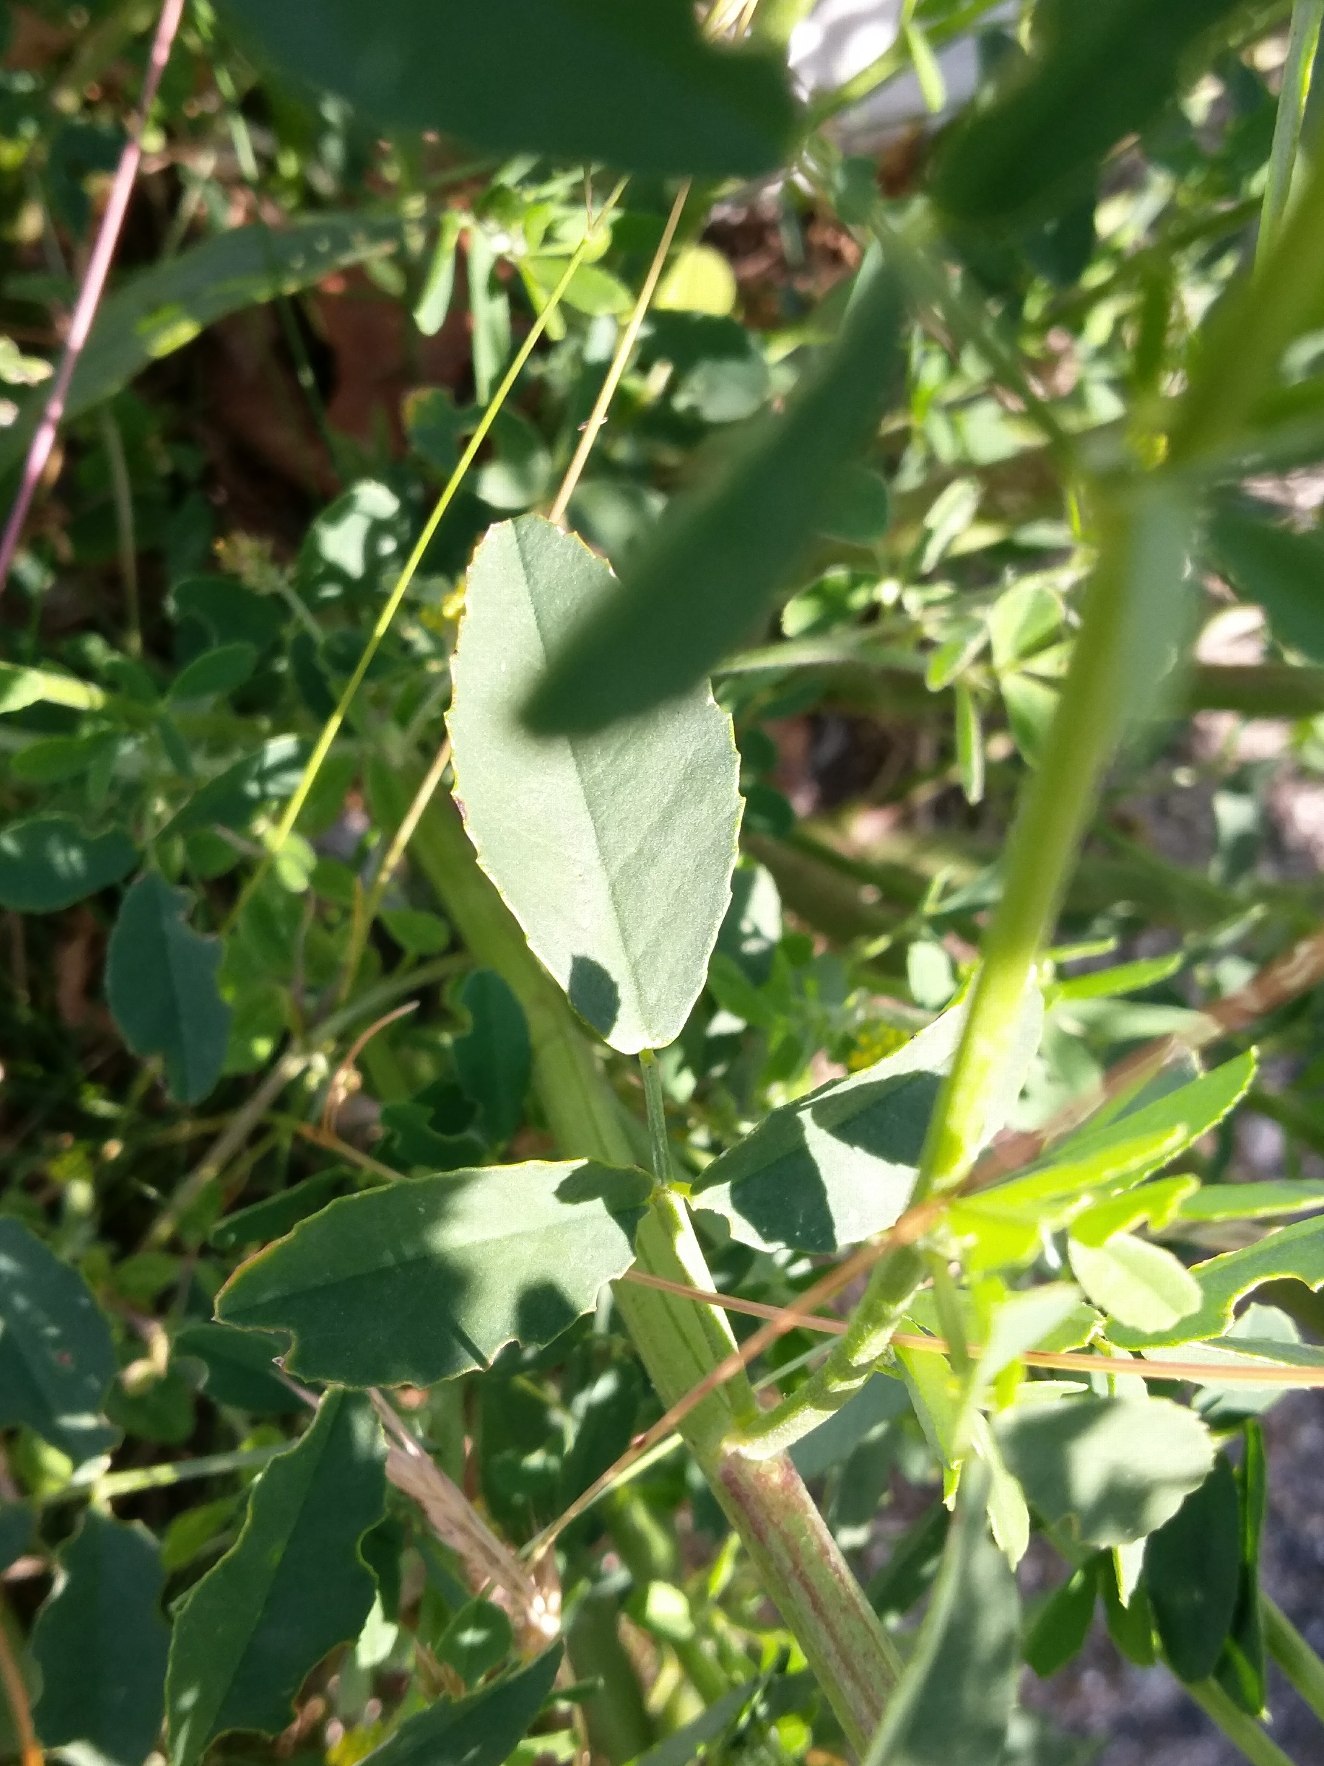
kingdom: Plantae
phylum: Tracheophyta
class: Magnoliopsida
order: Fabales
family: Fabaceae
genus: Melilotus
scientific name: Melilotus albus
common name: Hvid stenkløver
